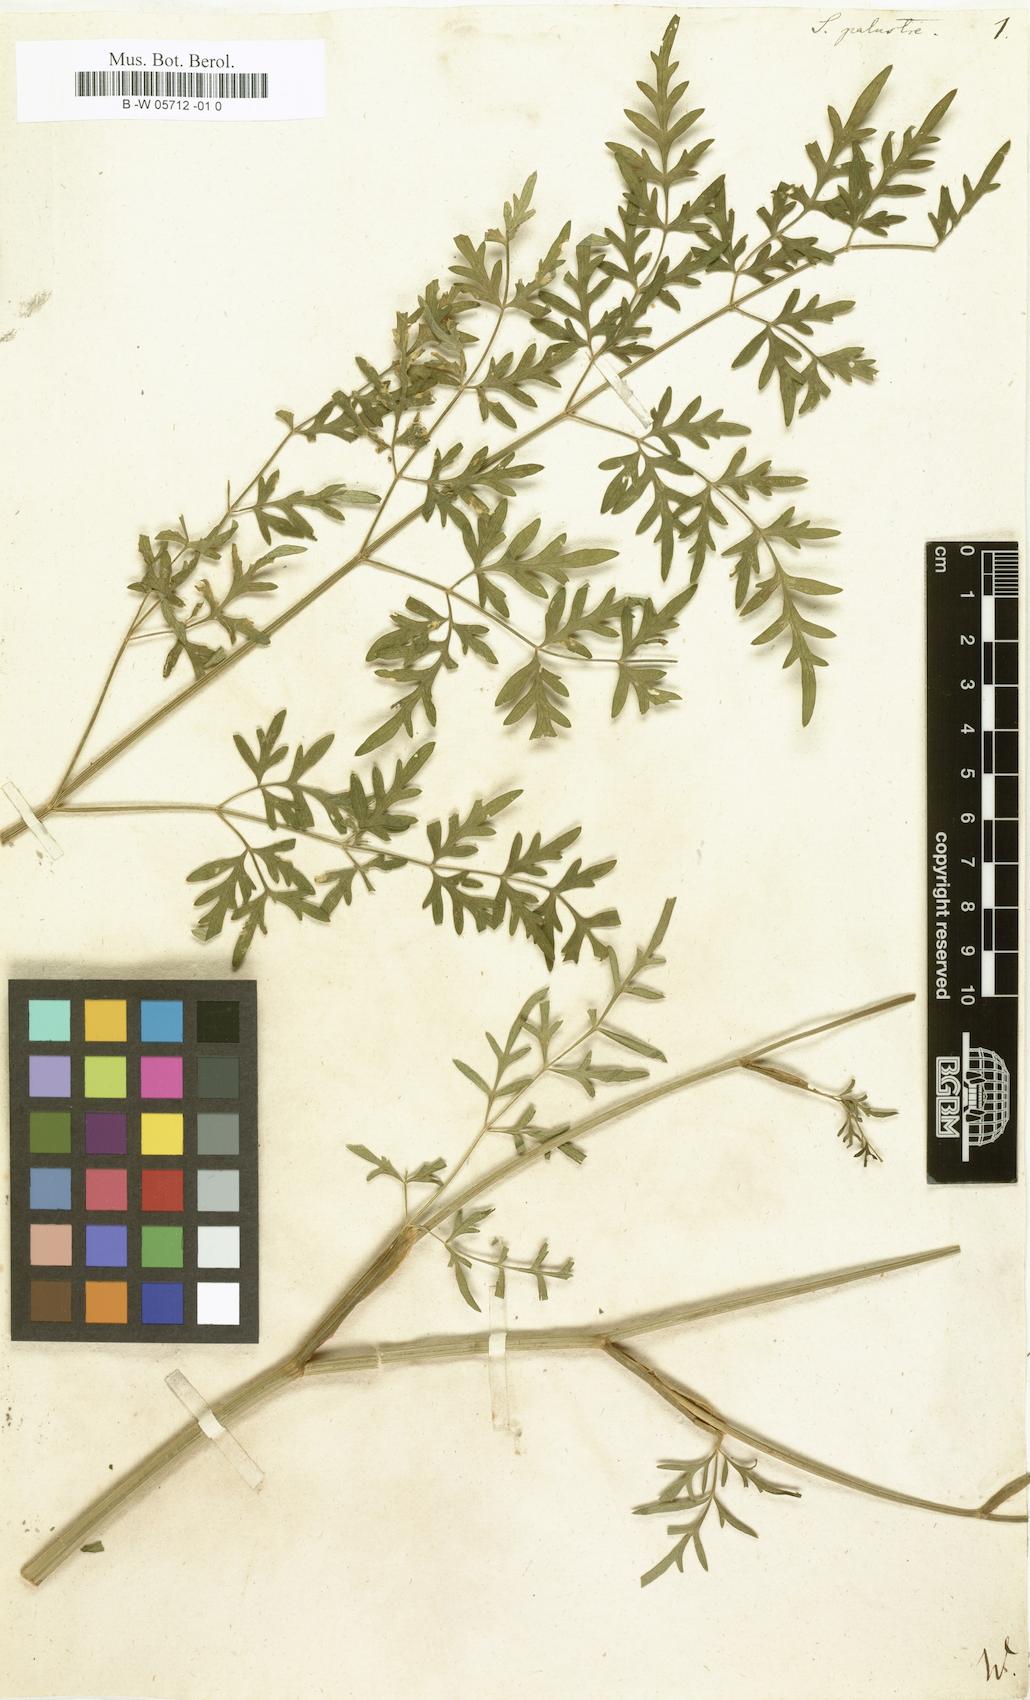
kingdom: Plantae
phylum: Tracheophyta
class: Magnoliopsida
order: Apiales
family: Apiaceae
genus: Selinum
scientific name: Selinum palustre
